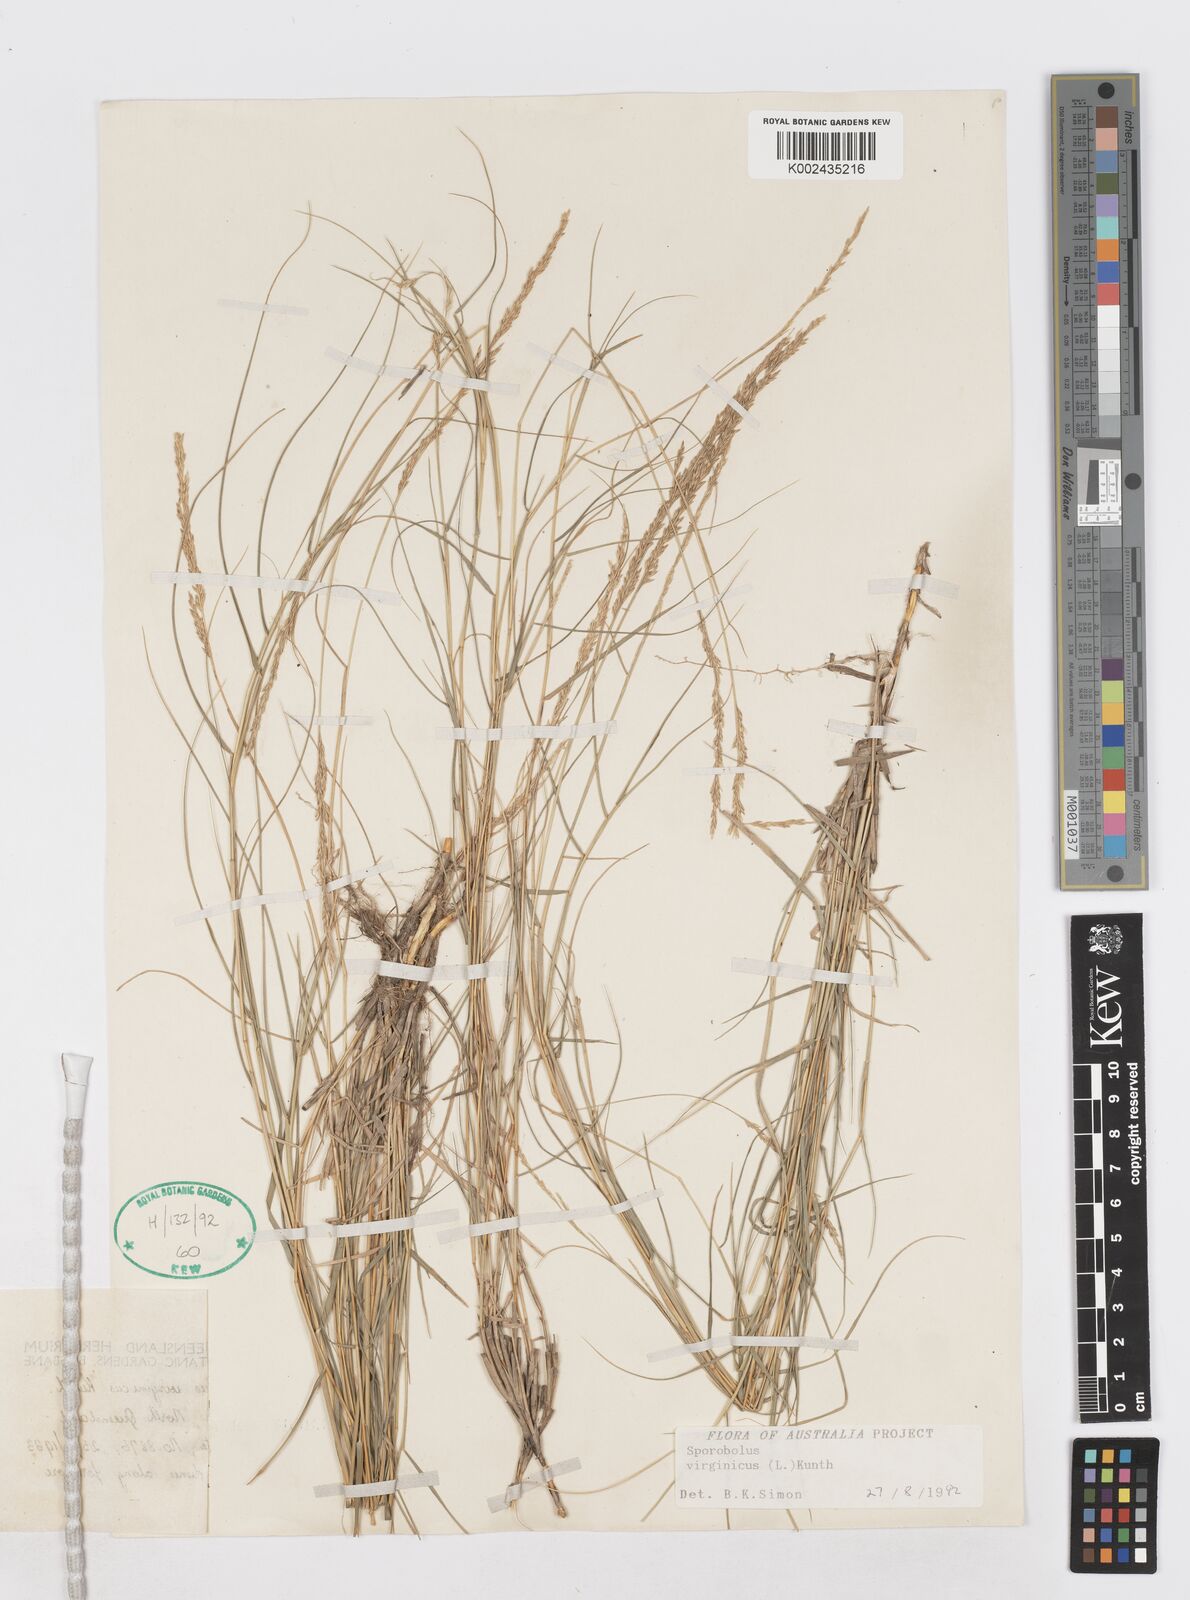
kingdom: Plantae
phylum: Tracheophyta
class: Liliopsida
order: Poales
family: Poaceae
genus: Sporobolus
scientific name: Sporobolus virginicus
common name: Beach dropseed
